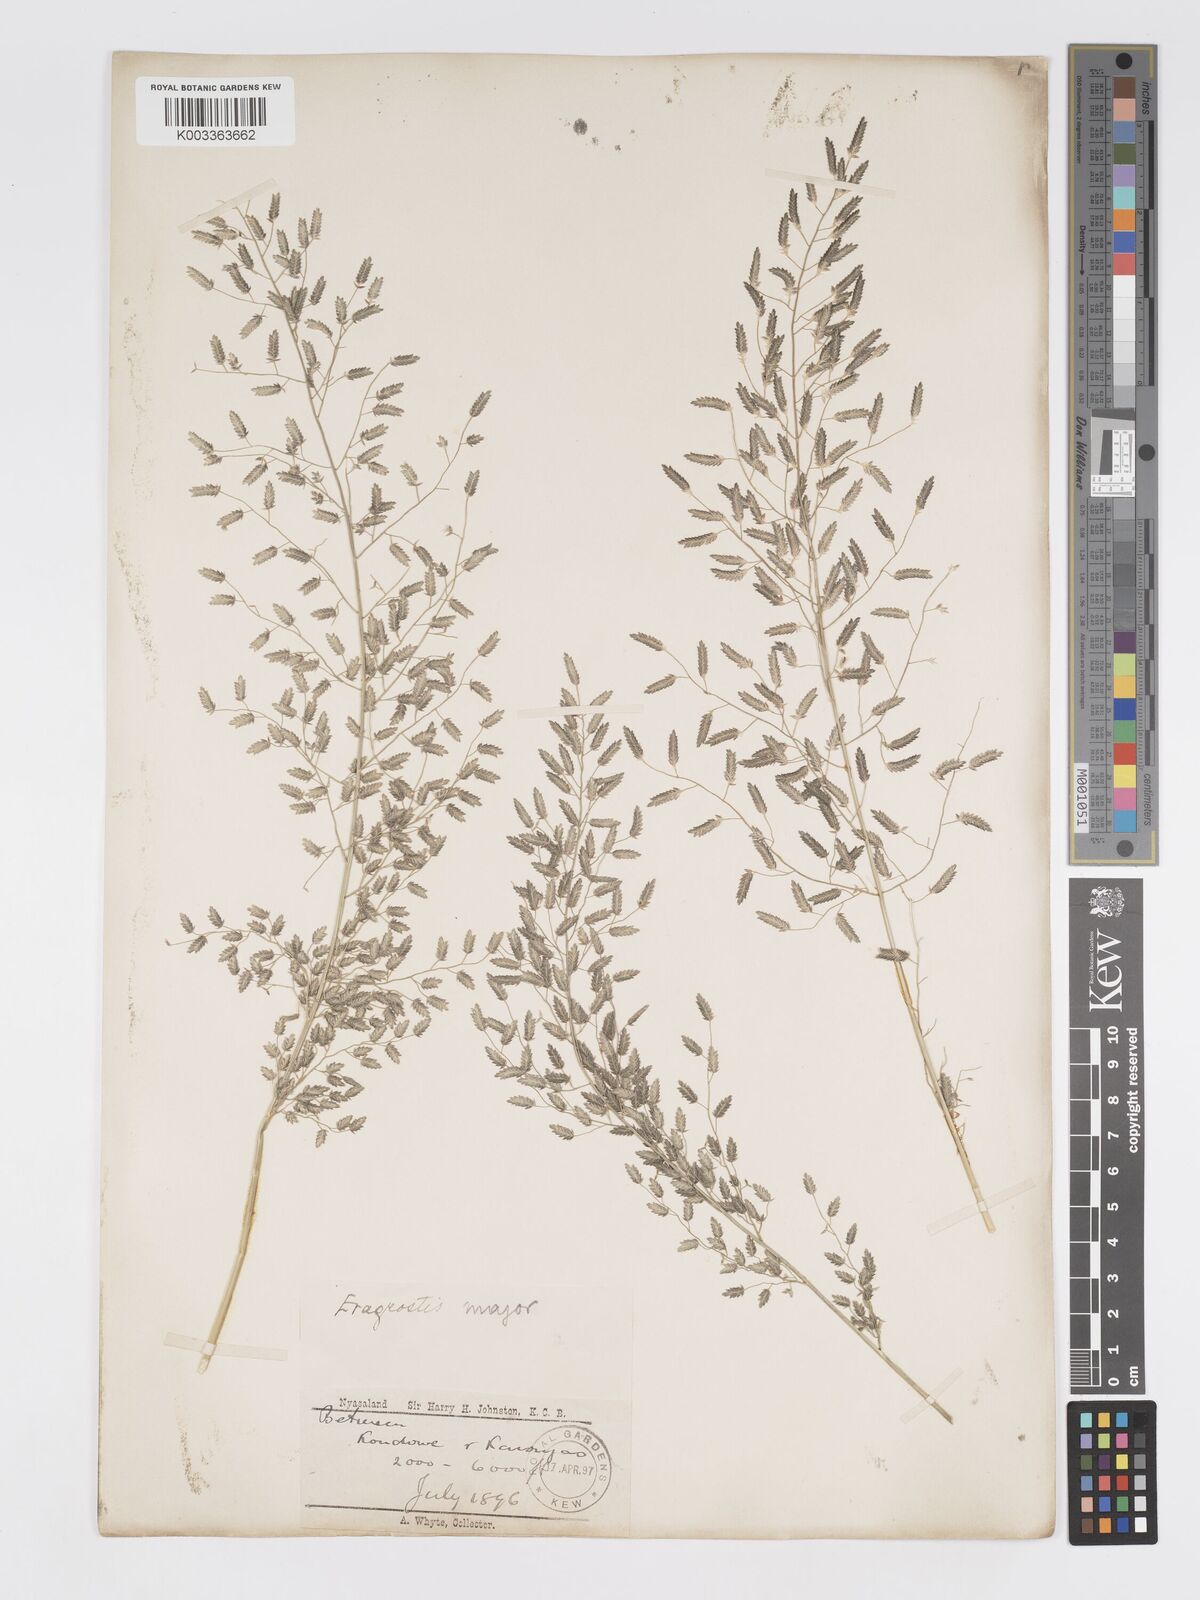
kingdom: Plantae
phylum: Tracheophyta
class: Liliopsida
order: Poales
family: Poaceae
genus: Eragrostis
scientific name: Eragrostis cilianensis
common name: Stinkgrass
